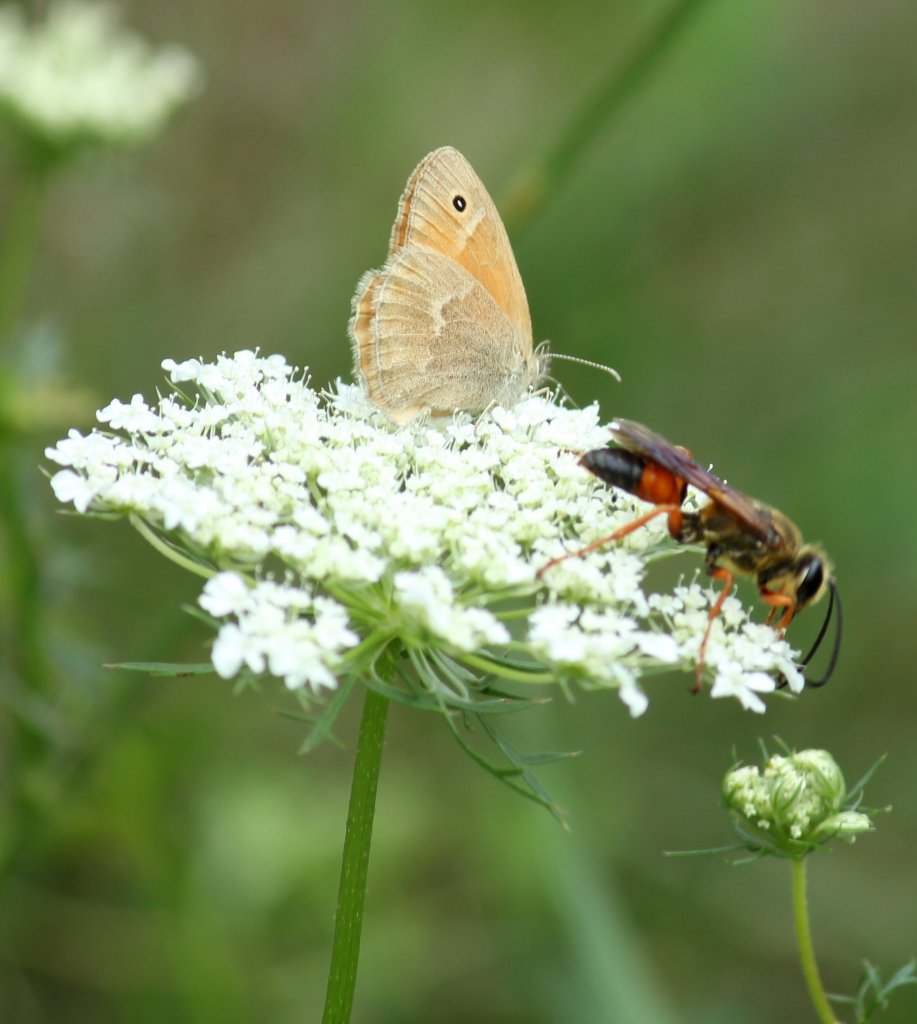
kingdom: Animalia
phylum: Arthropoda
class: Insecta
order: Lepidoptera
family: Nymphalidae
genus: Coenonympha
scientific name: Coenonympha tullia
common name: Large Heath
